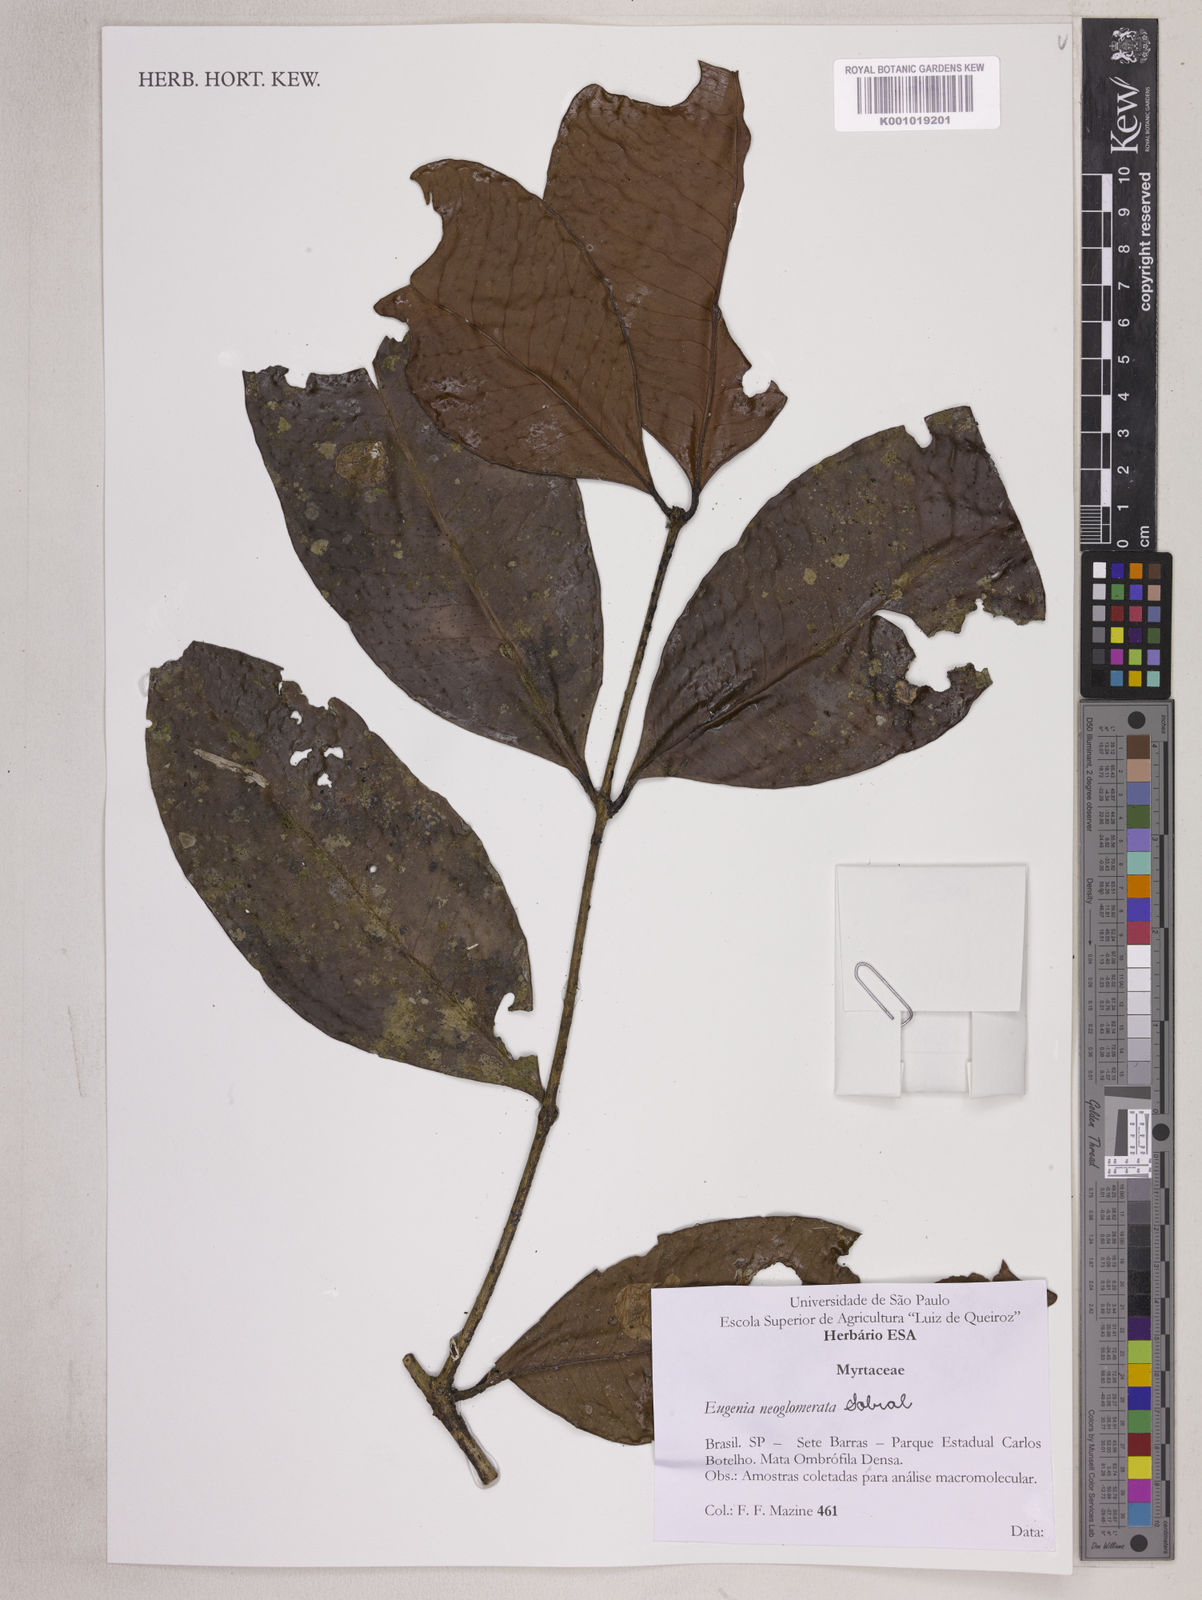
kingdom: Plantae
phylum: Tracheophyta
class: Magnoliopsida
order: Myrtales
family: Myrtaceae
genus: Eugenia
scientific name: Eugenia neoglomerata
